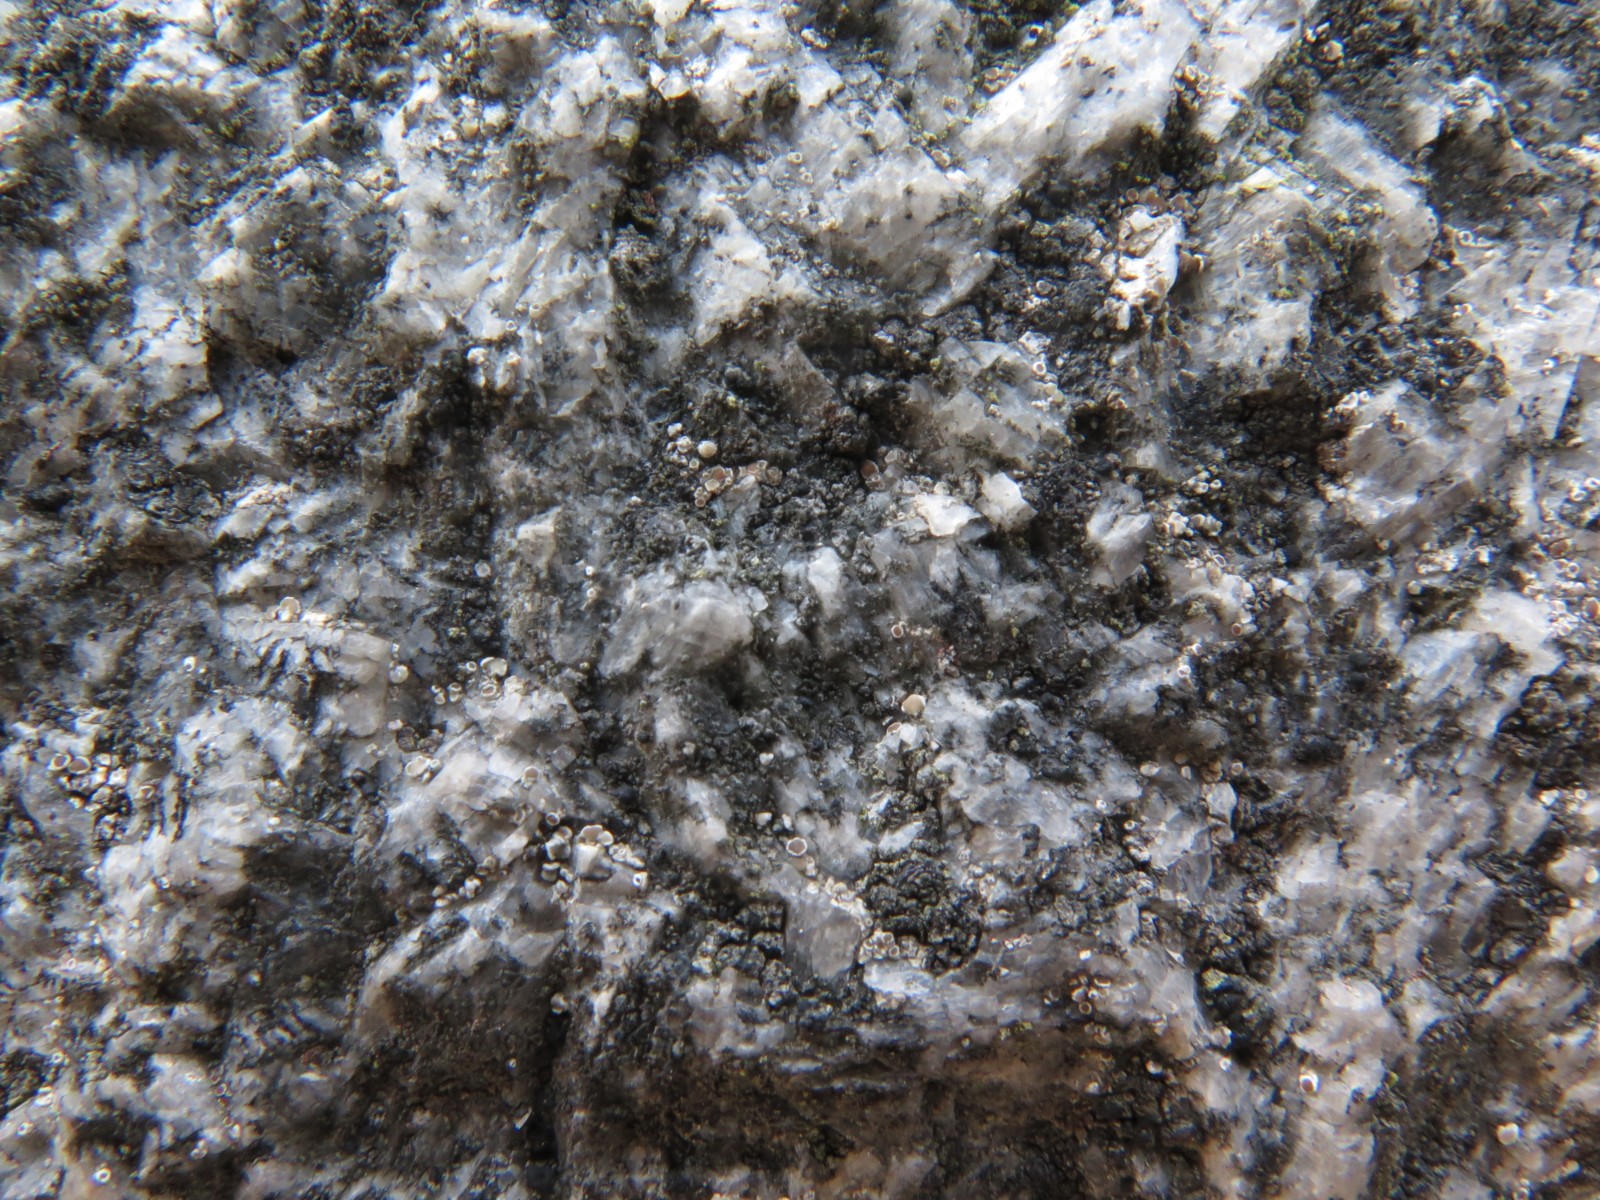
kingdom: Fungi
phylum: Ascomycota
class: Lecanoromycetes
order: Acarosporales
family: Acarosporaceae
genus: Acarospora
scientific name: Acarospora privigna
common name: sort foldekantlav
